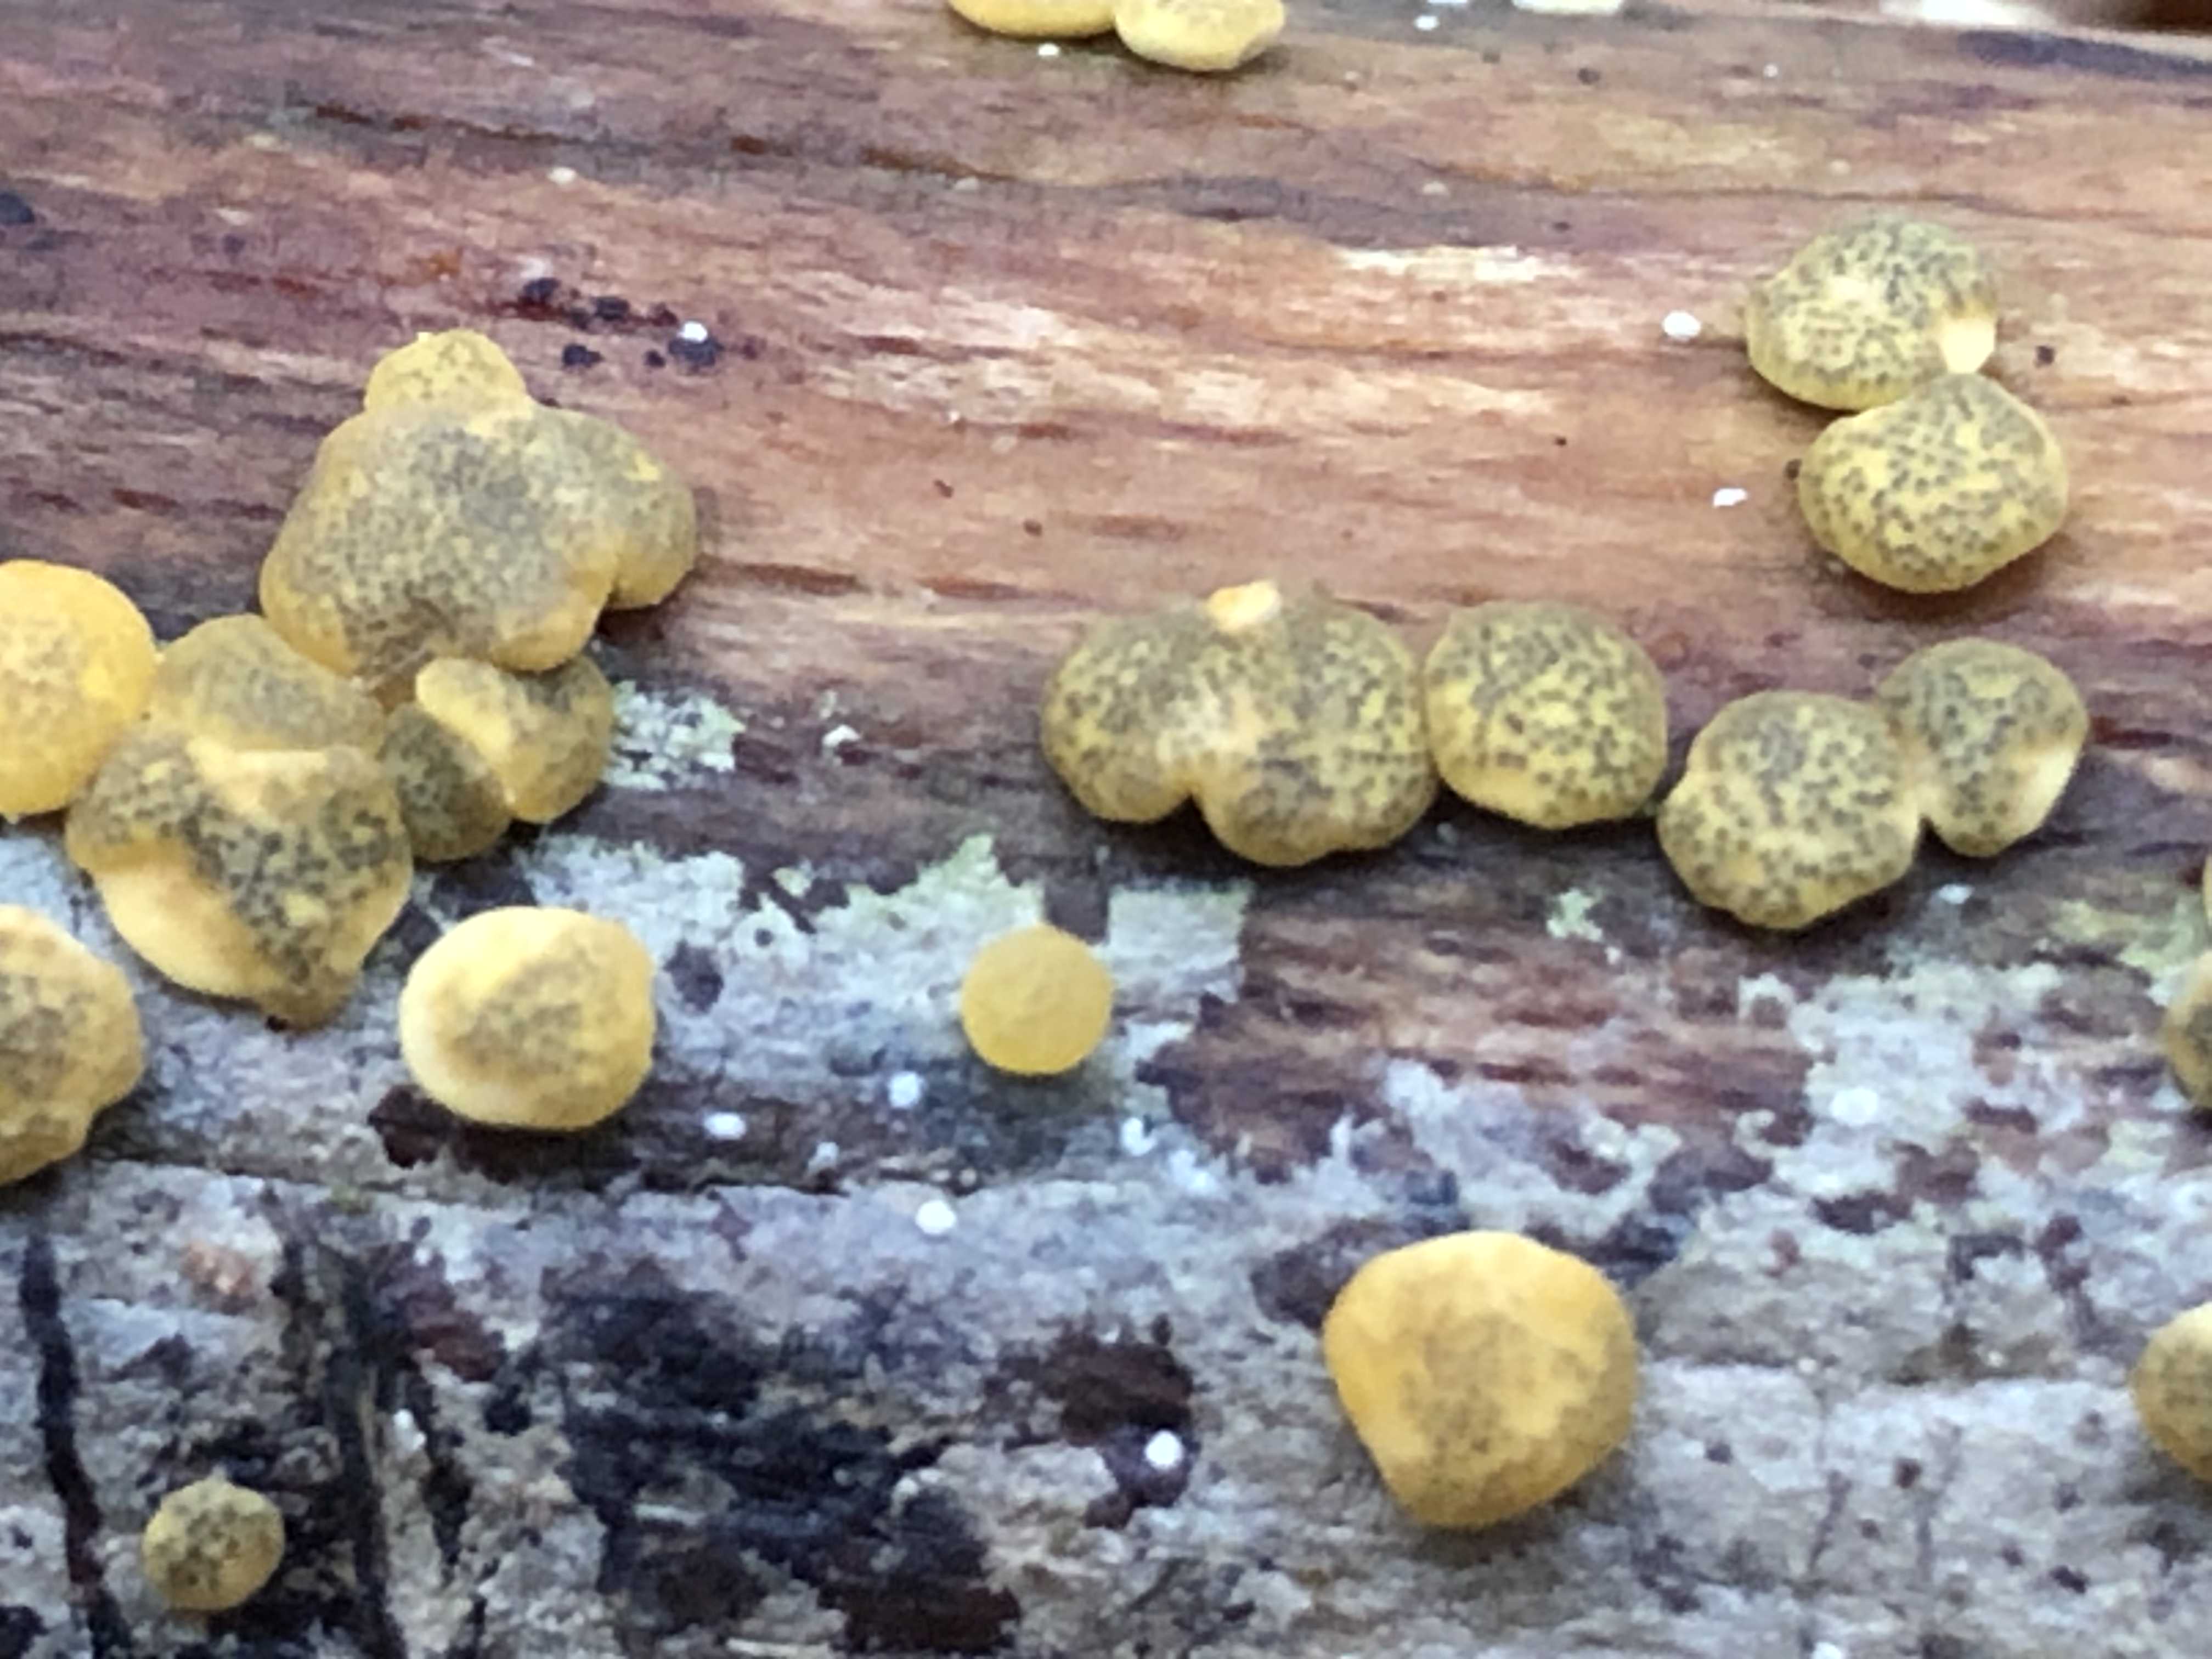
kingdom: Fungi
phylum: Ascomycota
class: Sordariomycetes
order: Hypocreales
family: Hypocreaceae
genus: Trichoderma
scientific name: Trichoderma aureoviride
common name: æggegul kødkerne
